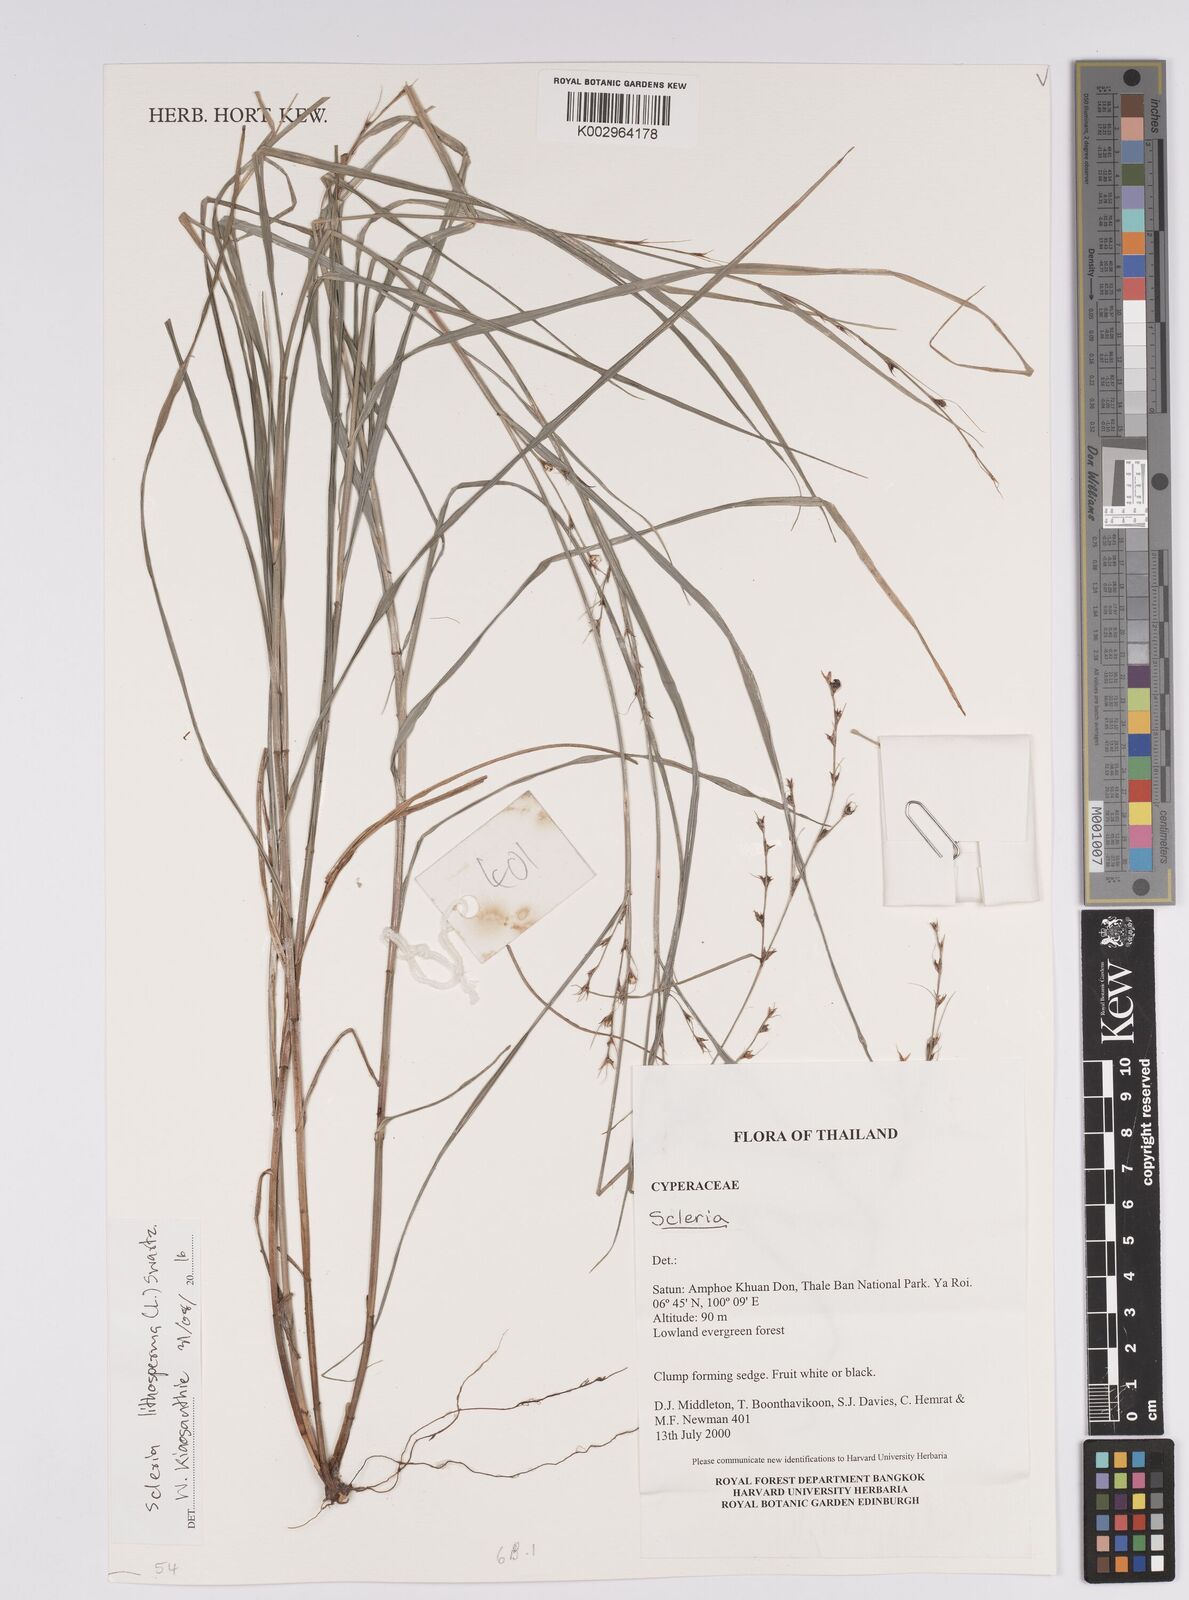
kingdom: Plantae
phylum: Tracheophyta
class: Liliopsida
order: Poales
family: Cyperaceae
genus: Scleria
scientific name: Scleria lithosperma
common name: Florida keys nut-rush
